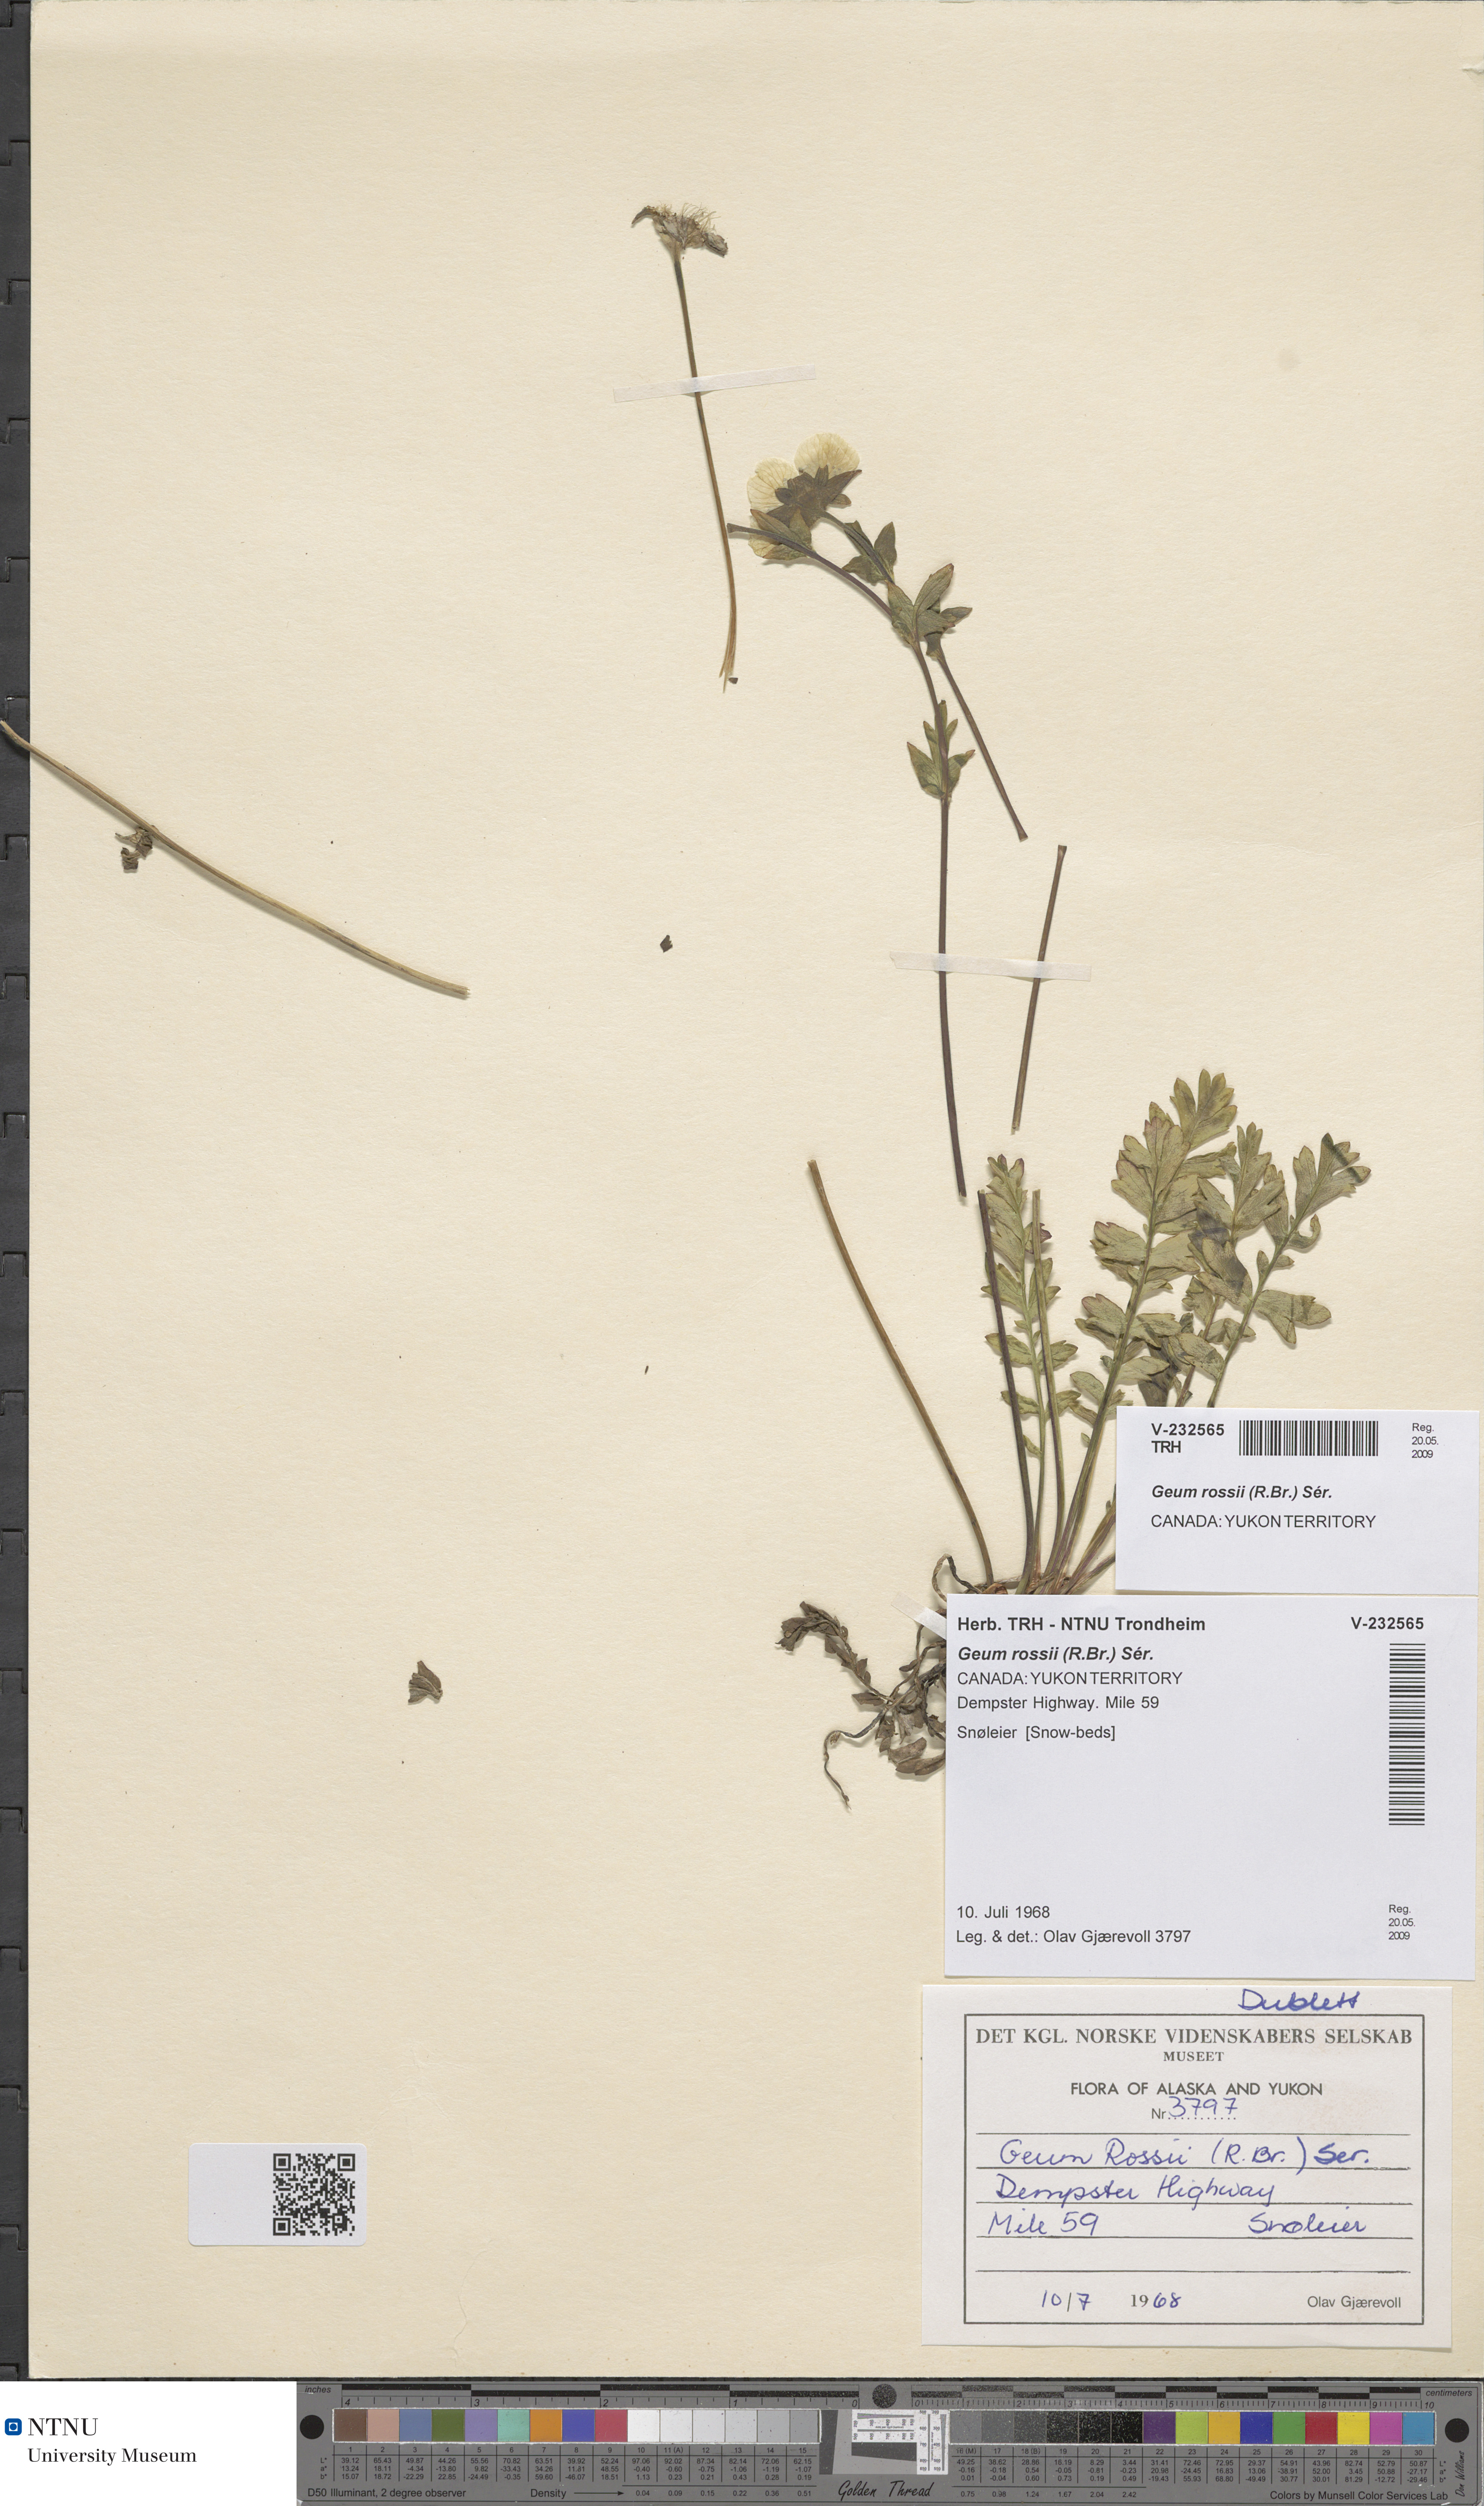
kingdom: Plantae
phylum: Tracheophyta
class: Magnoliopsida
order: Rosales
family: Rosaceae
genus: Geum
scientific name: Geum rossii
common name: Alpine avens
